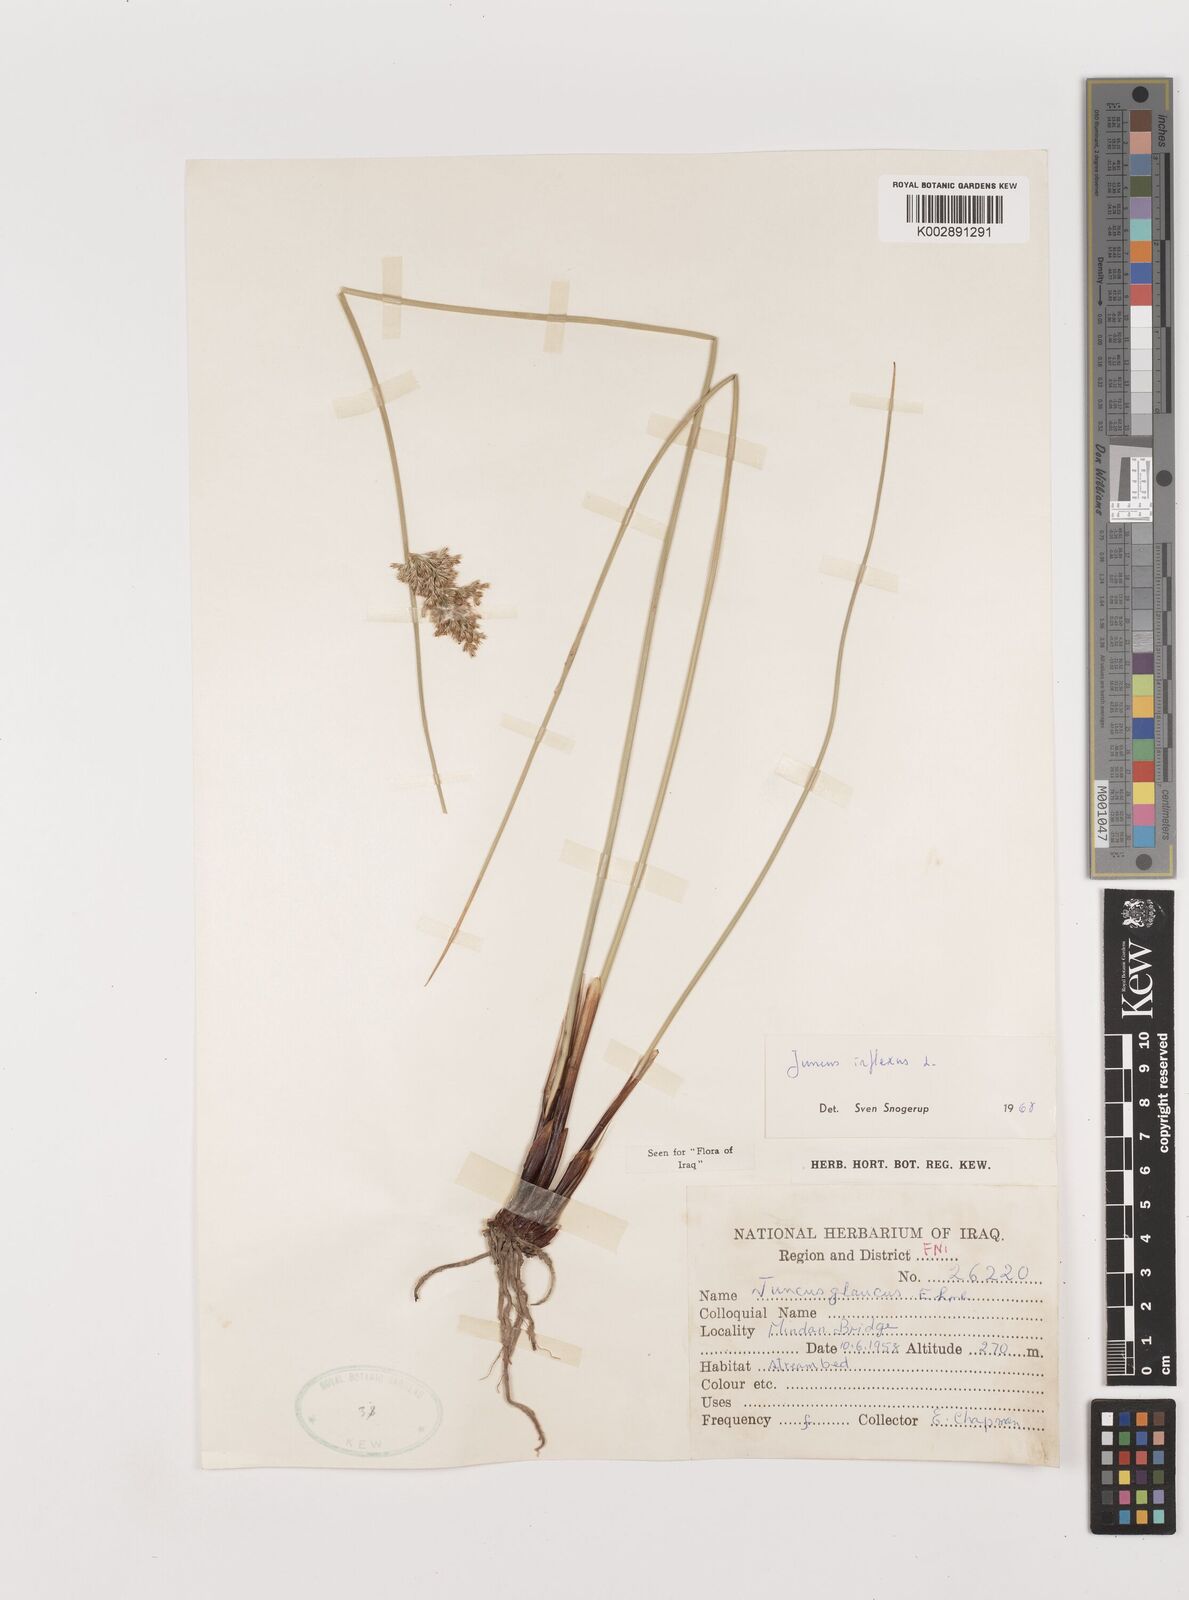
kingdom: Plantae
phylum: Tracheophyta
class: Liliopsida
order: Poales
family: Juncaceae
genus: Juncus
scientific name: Juncus inflexus
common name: Hard rush
